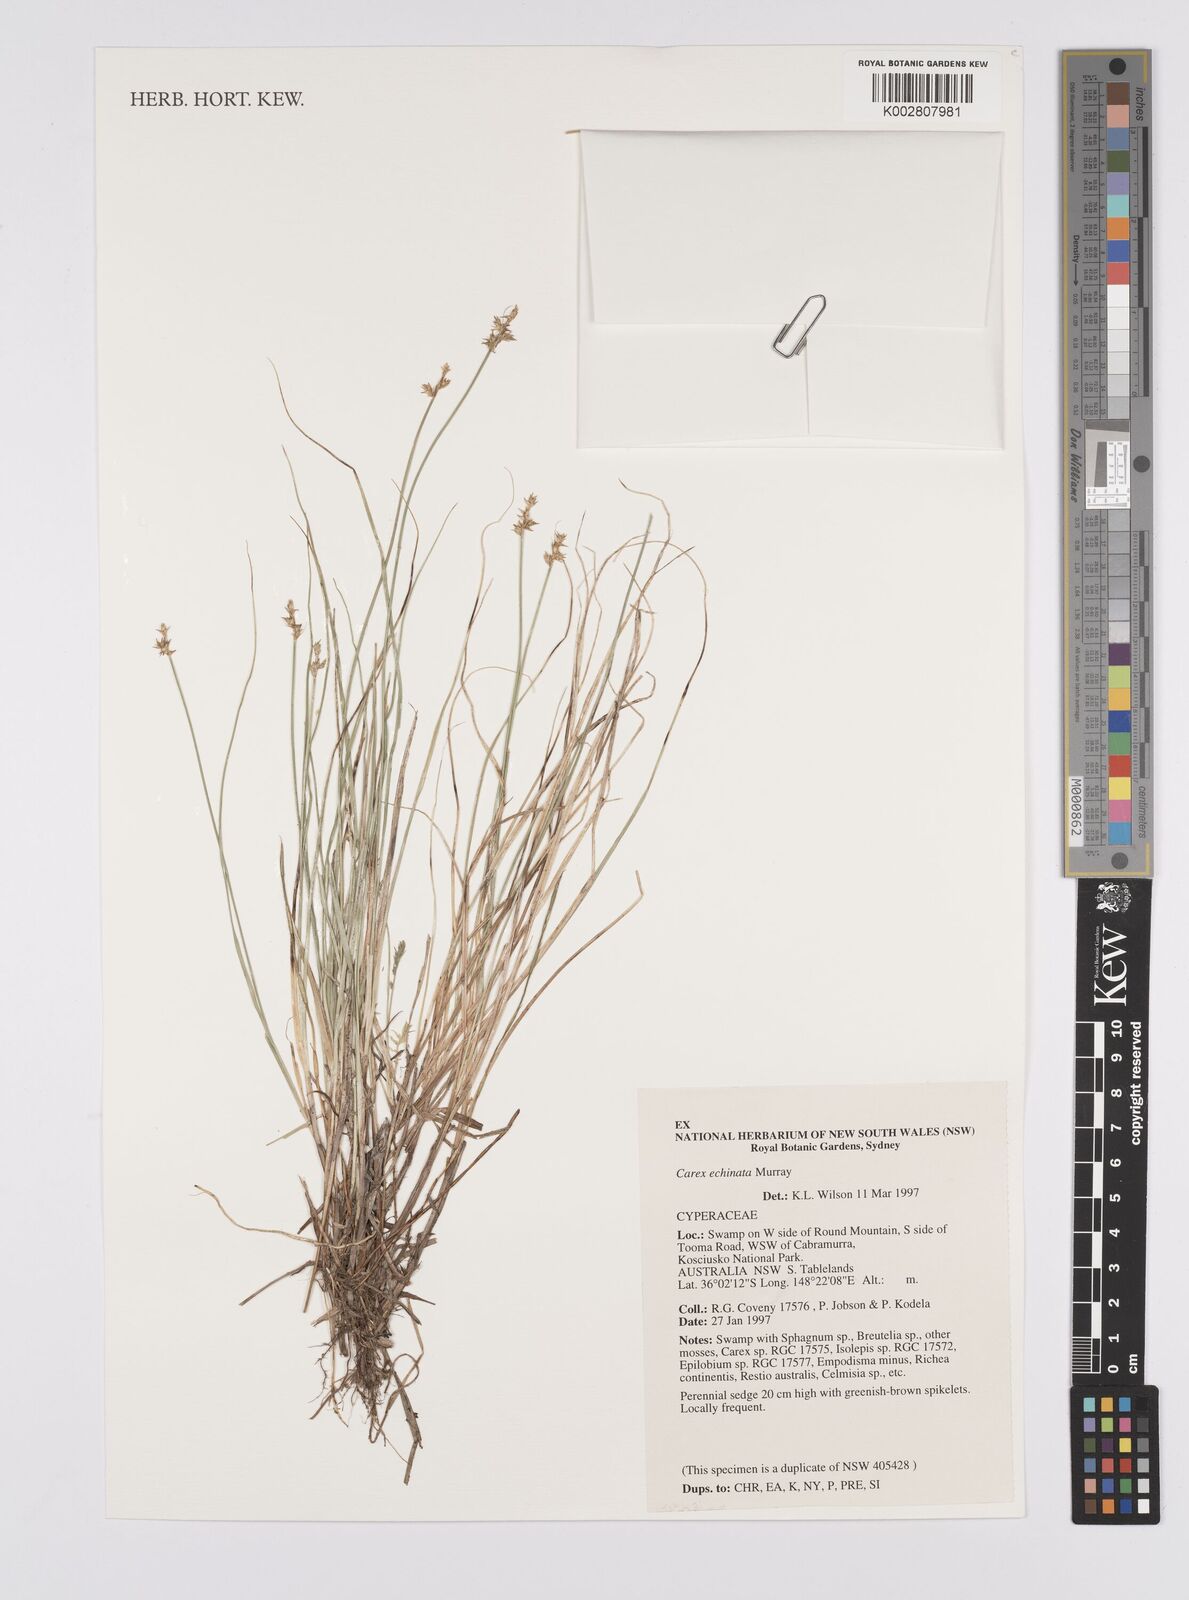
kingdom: Plantae
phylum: Tracheophyta
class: Liliopsida
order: Poales
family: Cyperaceae
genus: Carex
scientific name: Carex echinata
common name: Star sedge
